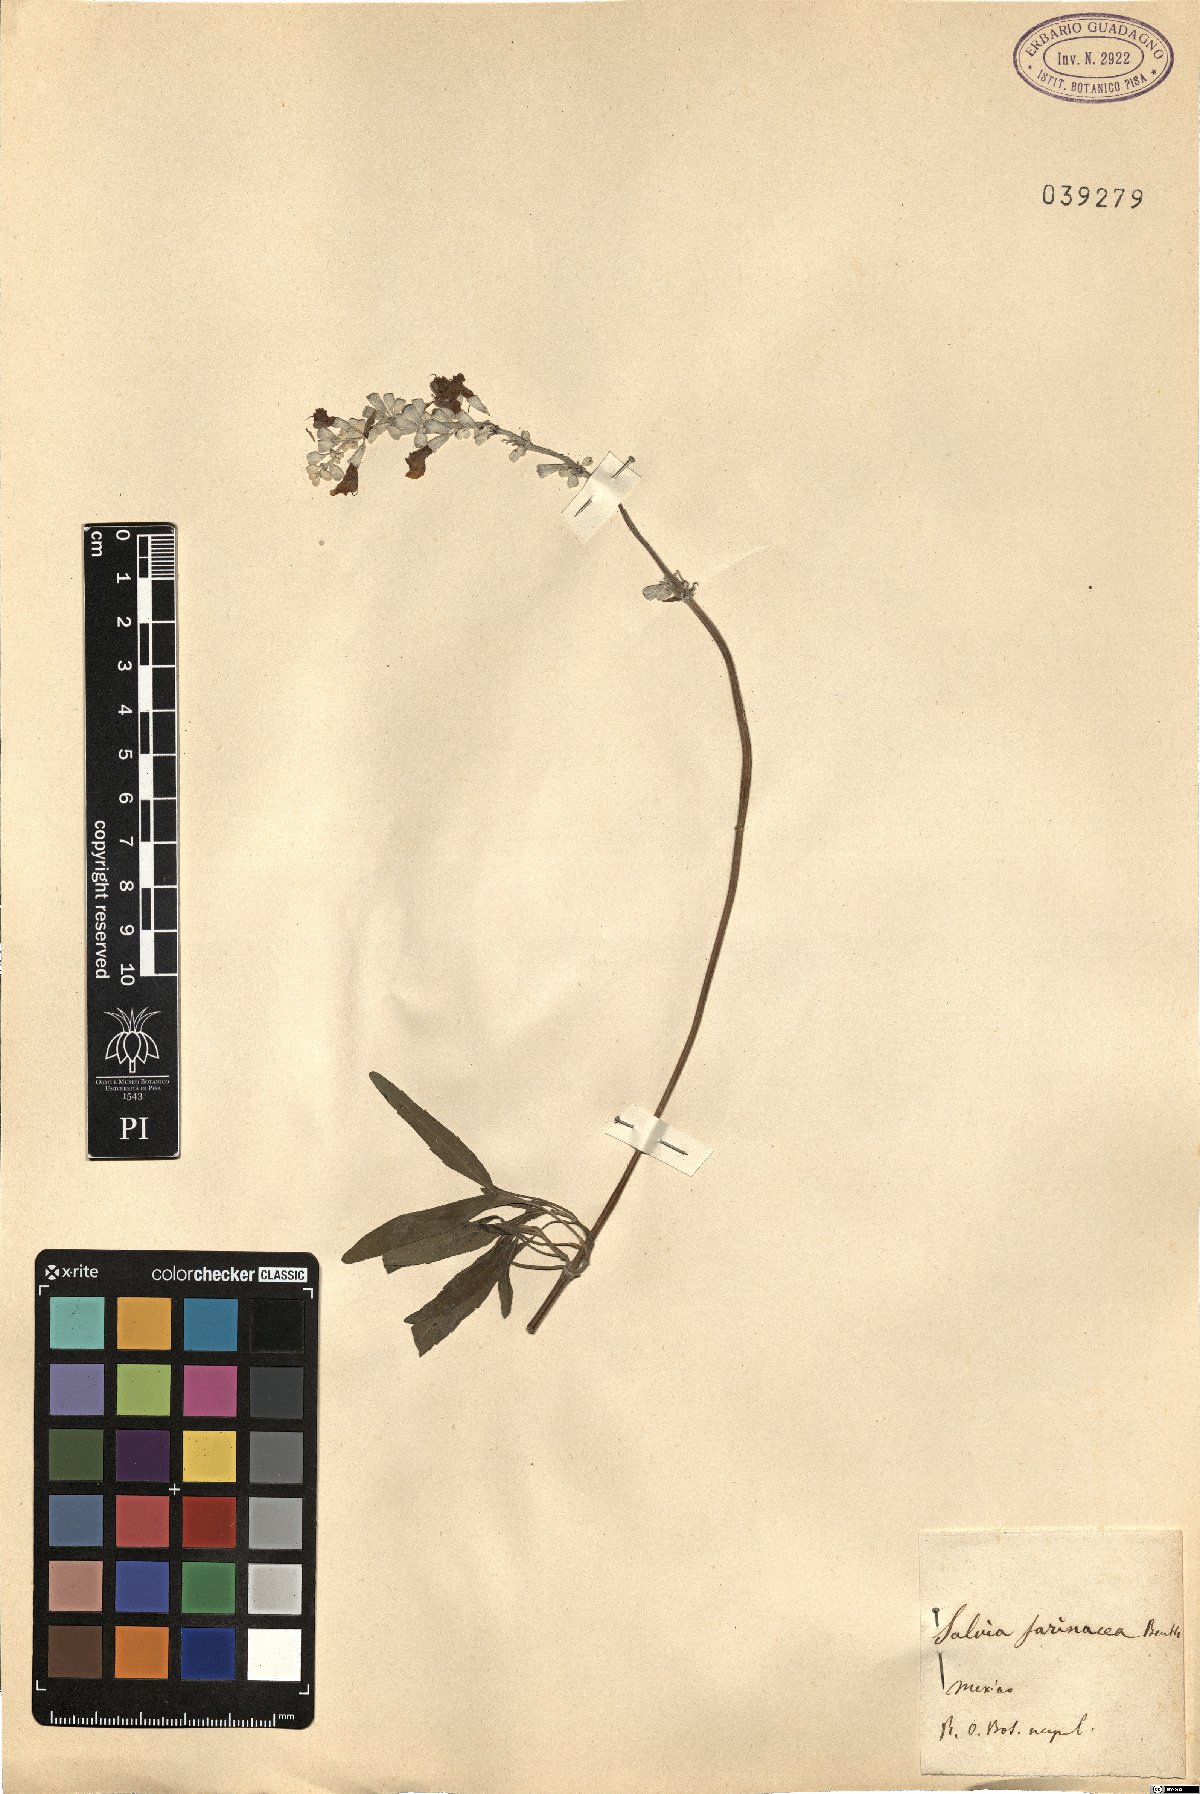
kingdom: Plantae
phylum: Tracheophyta
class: Magnoliopsida
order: Lamiales
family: Lamiaceae
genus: Salvia
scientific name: Salvia farinacea
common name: Mealy sage
